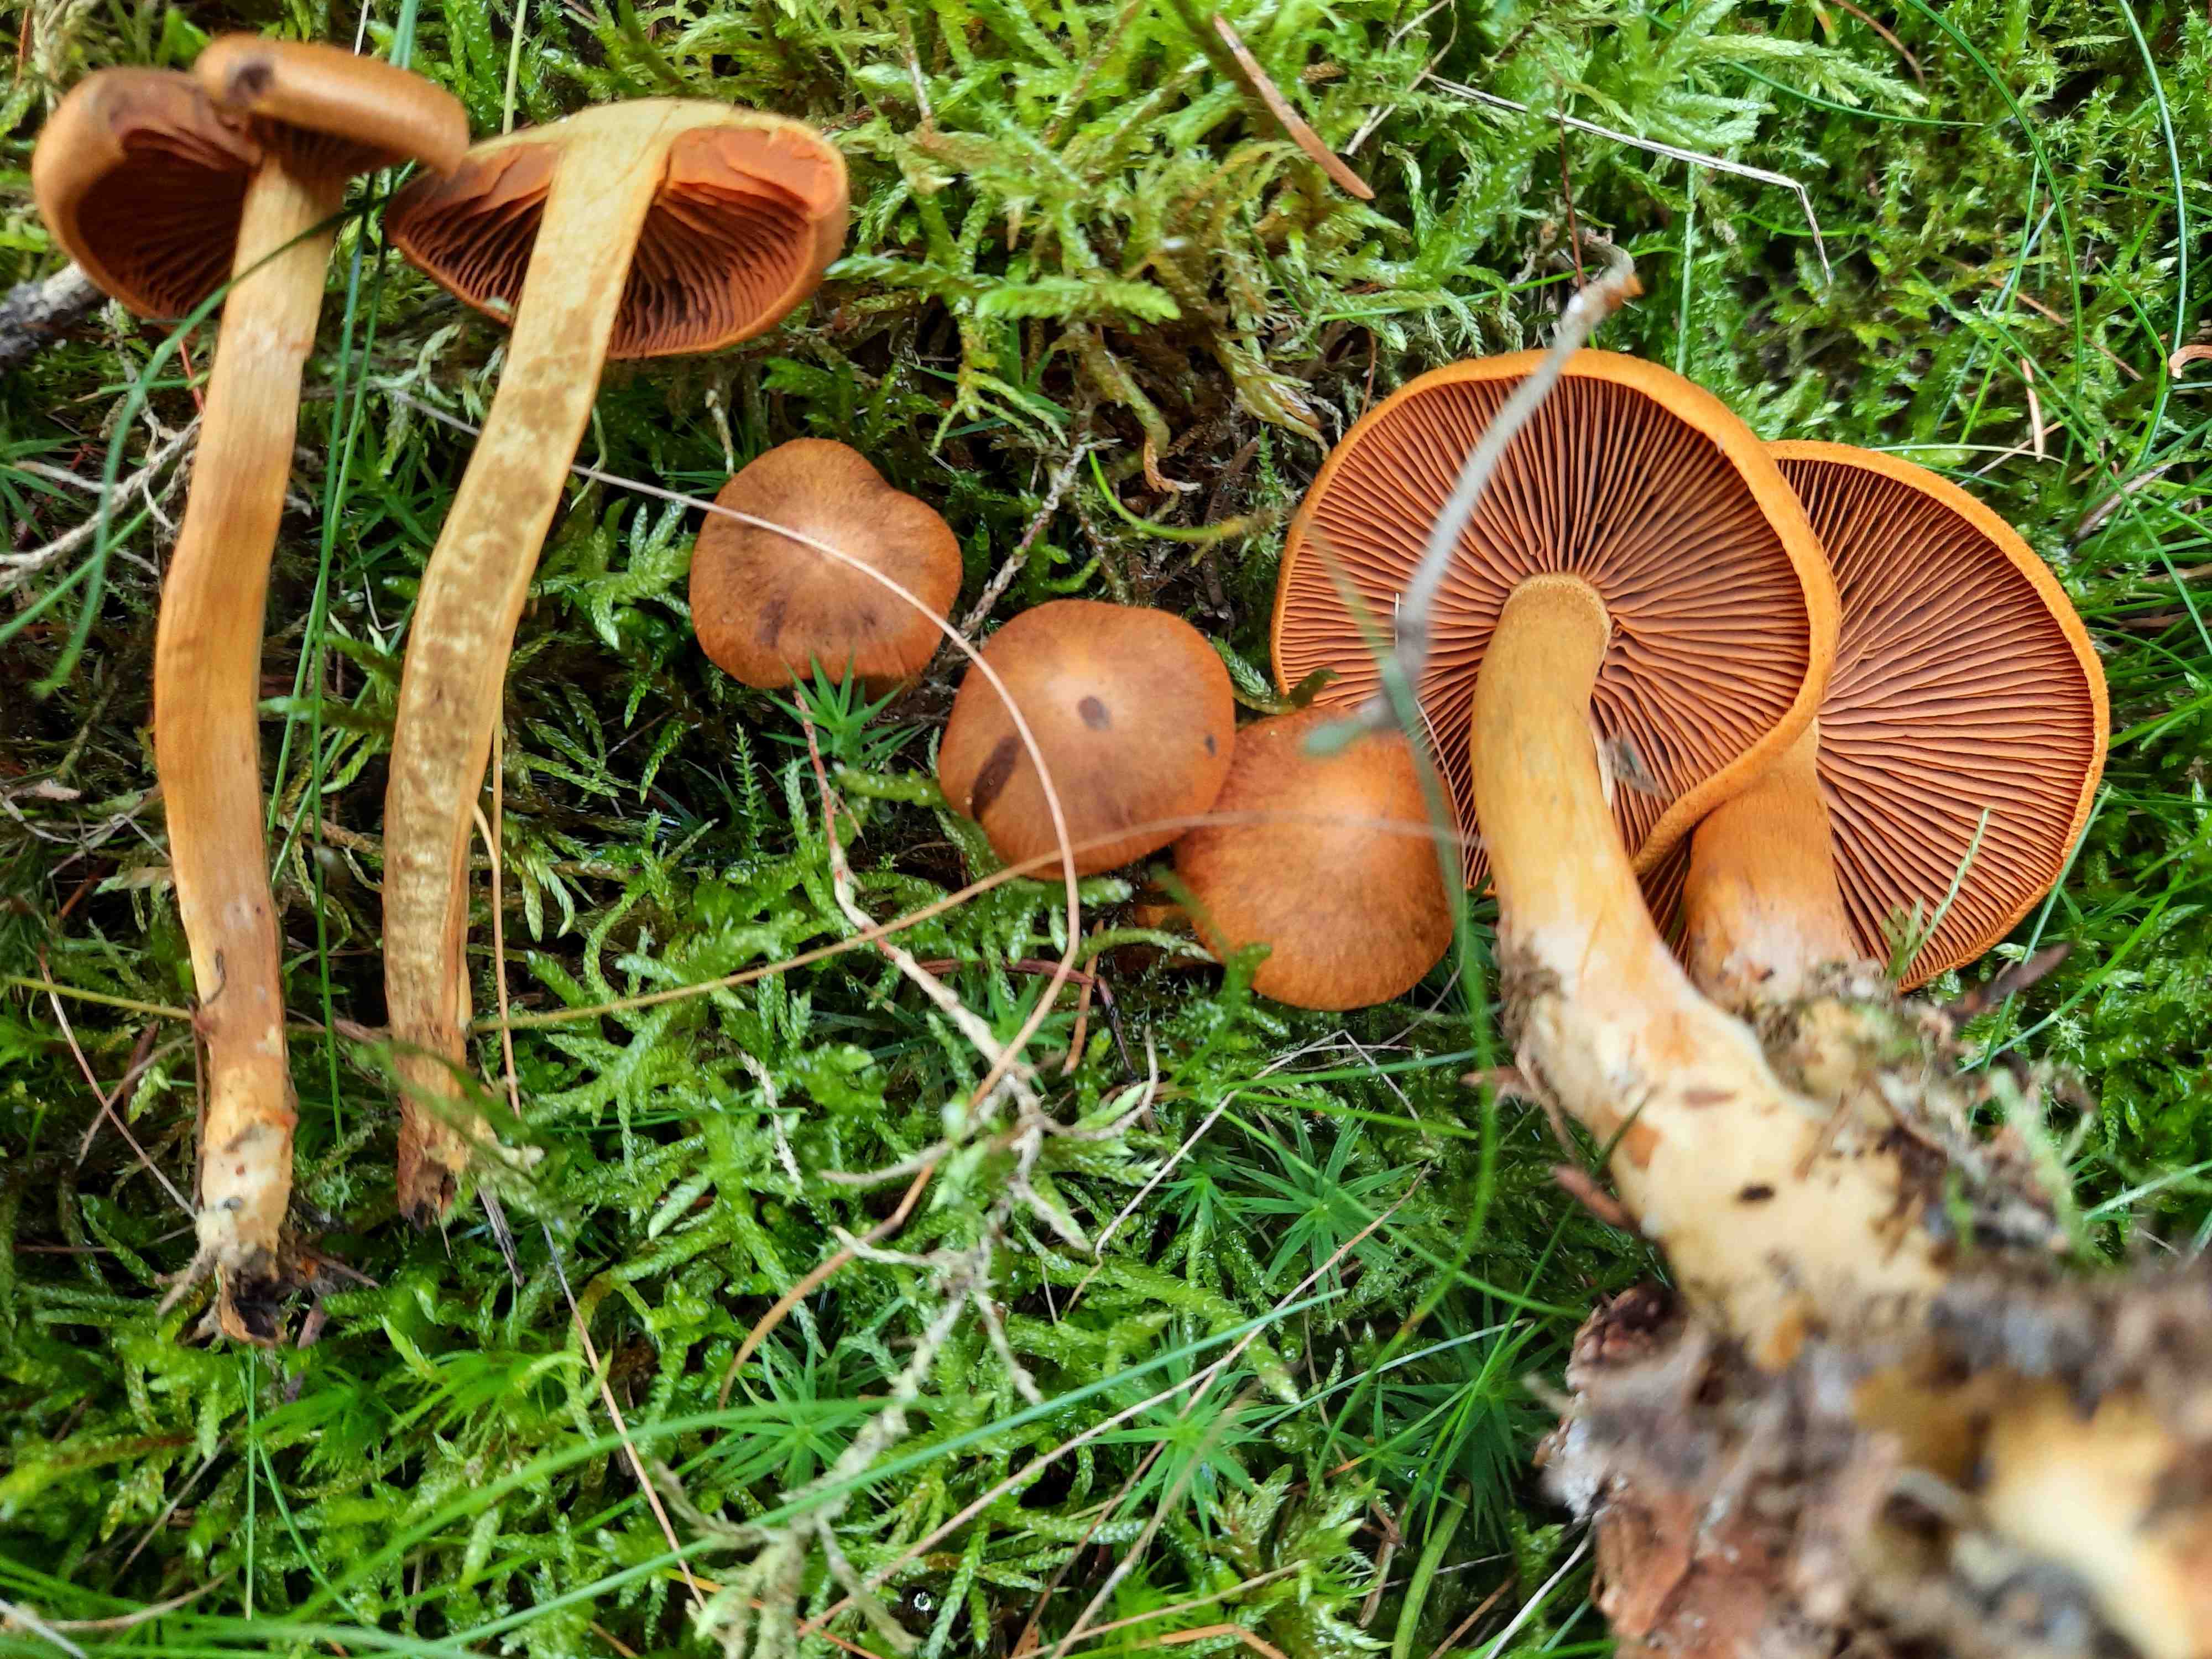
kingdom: Fungi
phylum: Basidiomycota
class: Agaricomycetes
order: Agaricales
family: Cortinariaceae
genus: Cortinarius
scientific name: Cortinarius malicorius
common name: grønkødet slørhat
